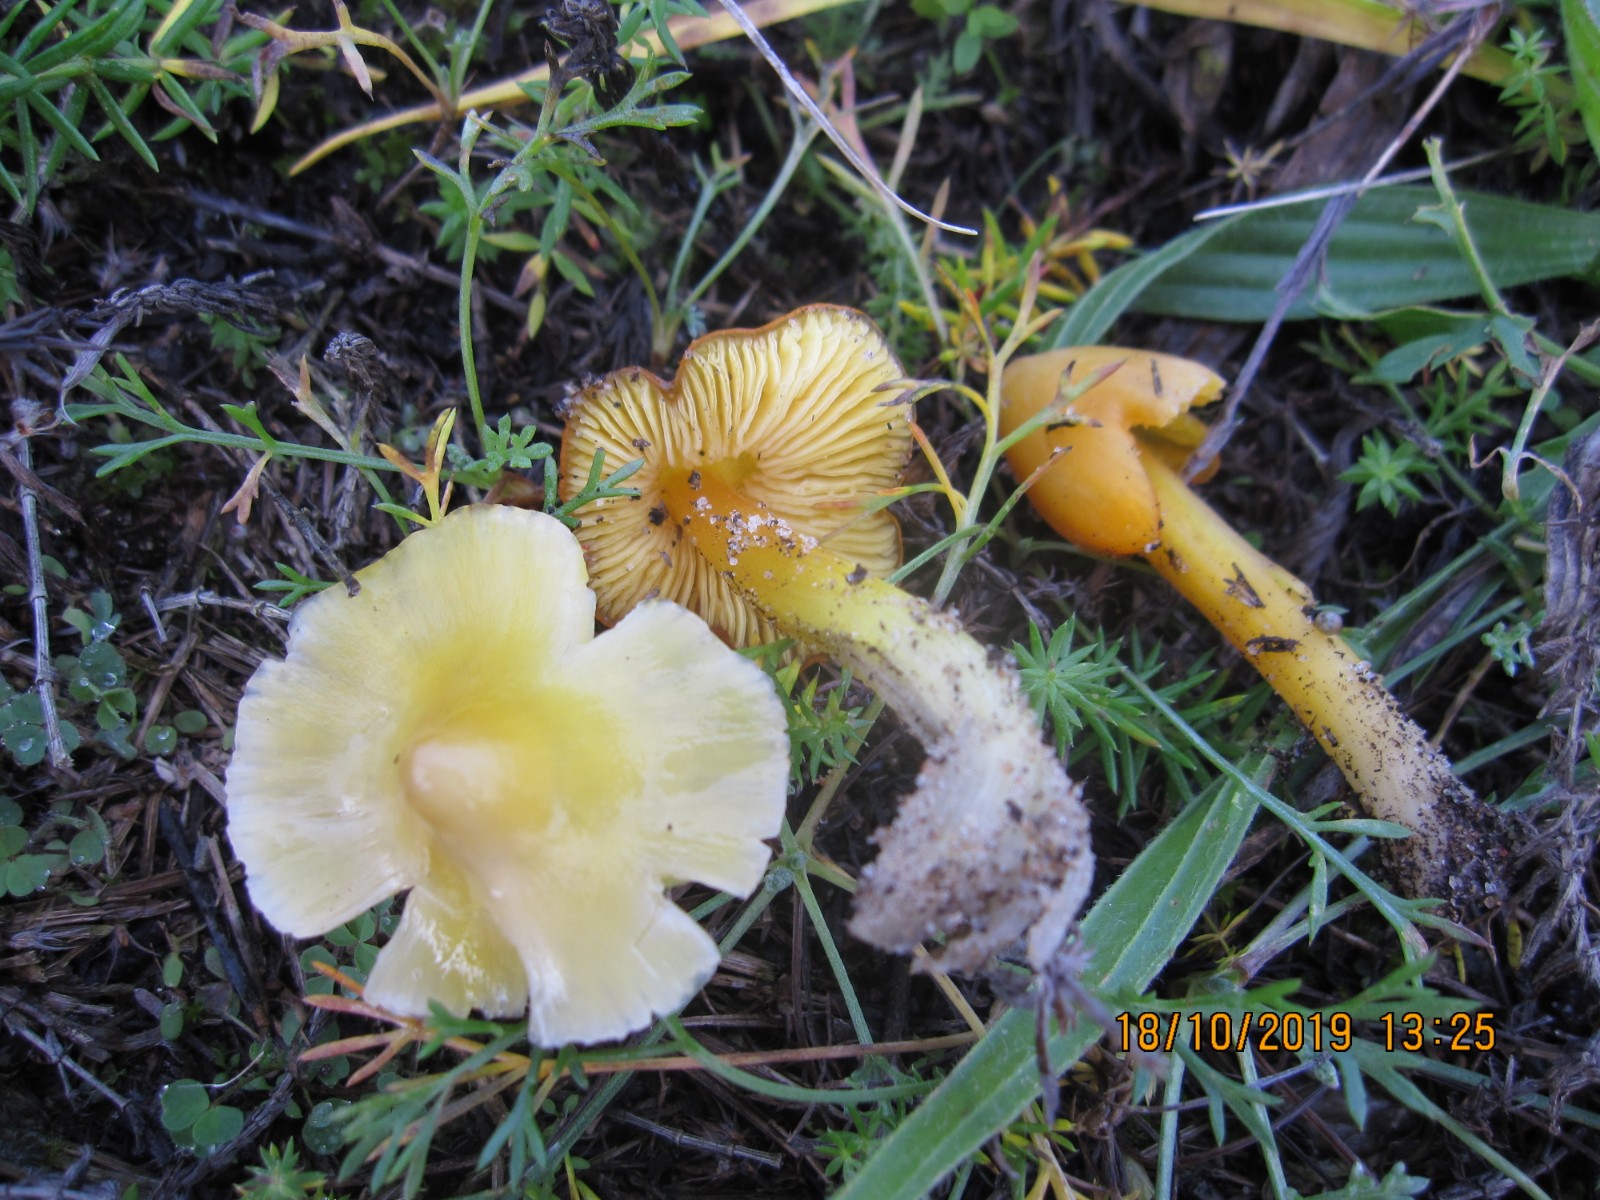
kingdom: Fungi
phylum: Basidiomycota
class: Agaricomycetes
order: Agaricales
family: Hygrophoraceae
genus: Hygrocybe
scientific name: Hygrocybe acutoconica
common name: spidspuklet vokshat
